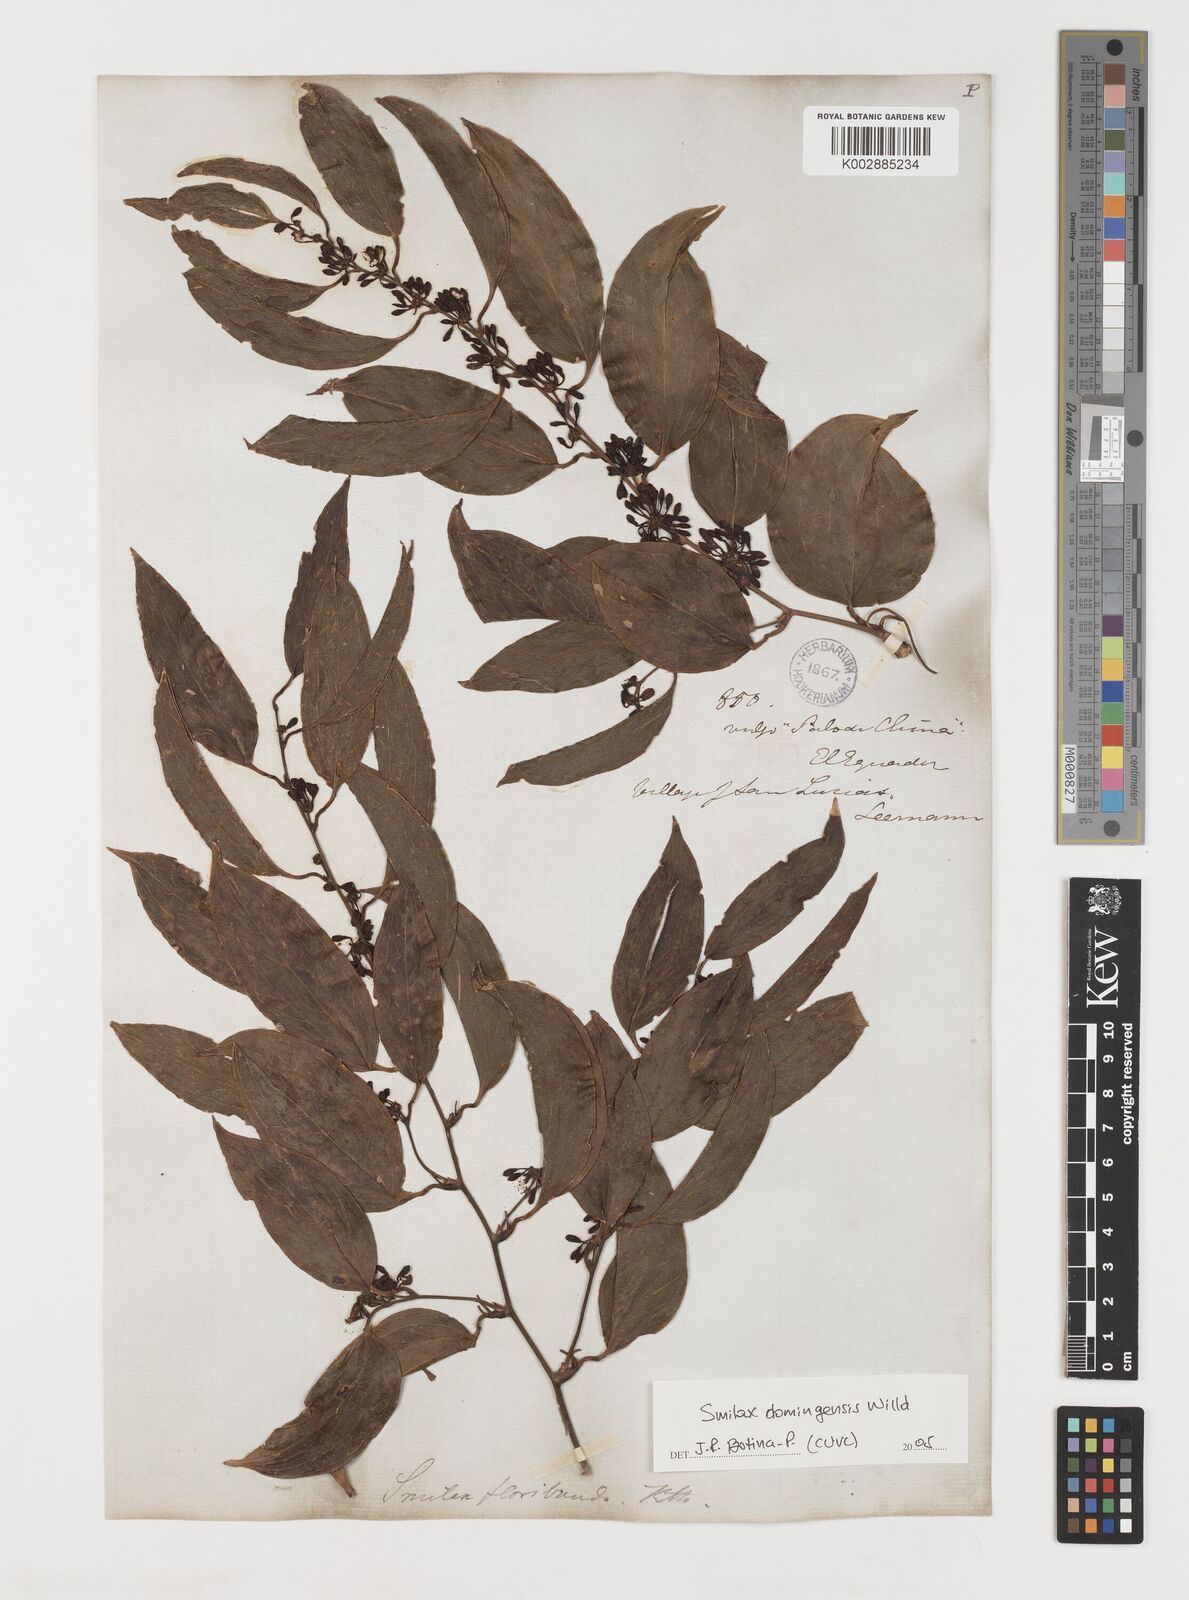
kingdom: Plantae
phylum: Tracheophyta
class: Liliopsida
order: Liliales
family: Smilacaceae
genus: Smilax
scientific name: Smilax domingensis
